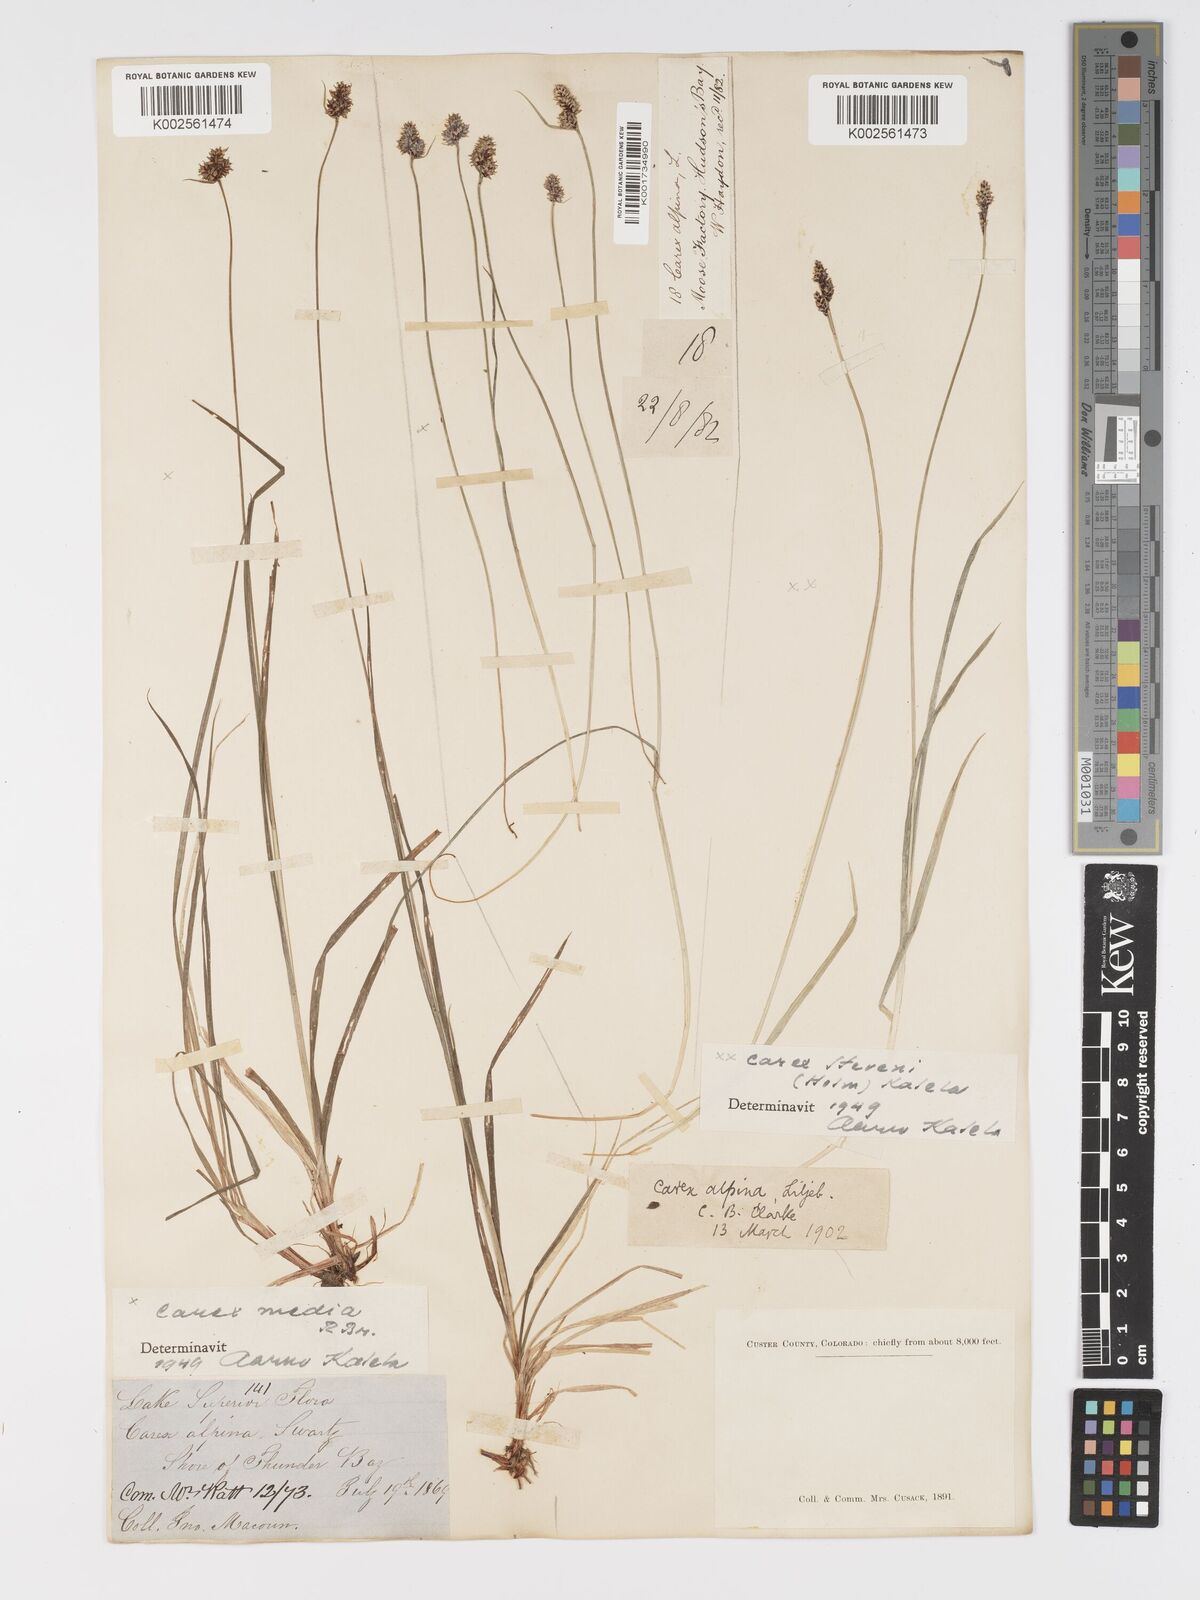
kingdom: Plantae
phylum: Tracheophyta
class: Liliopsida
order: Poales
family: Cyperaceae
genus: Carex
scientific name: Carex stevenii
